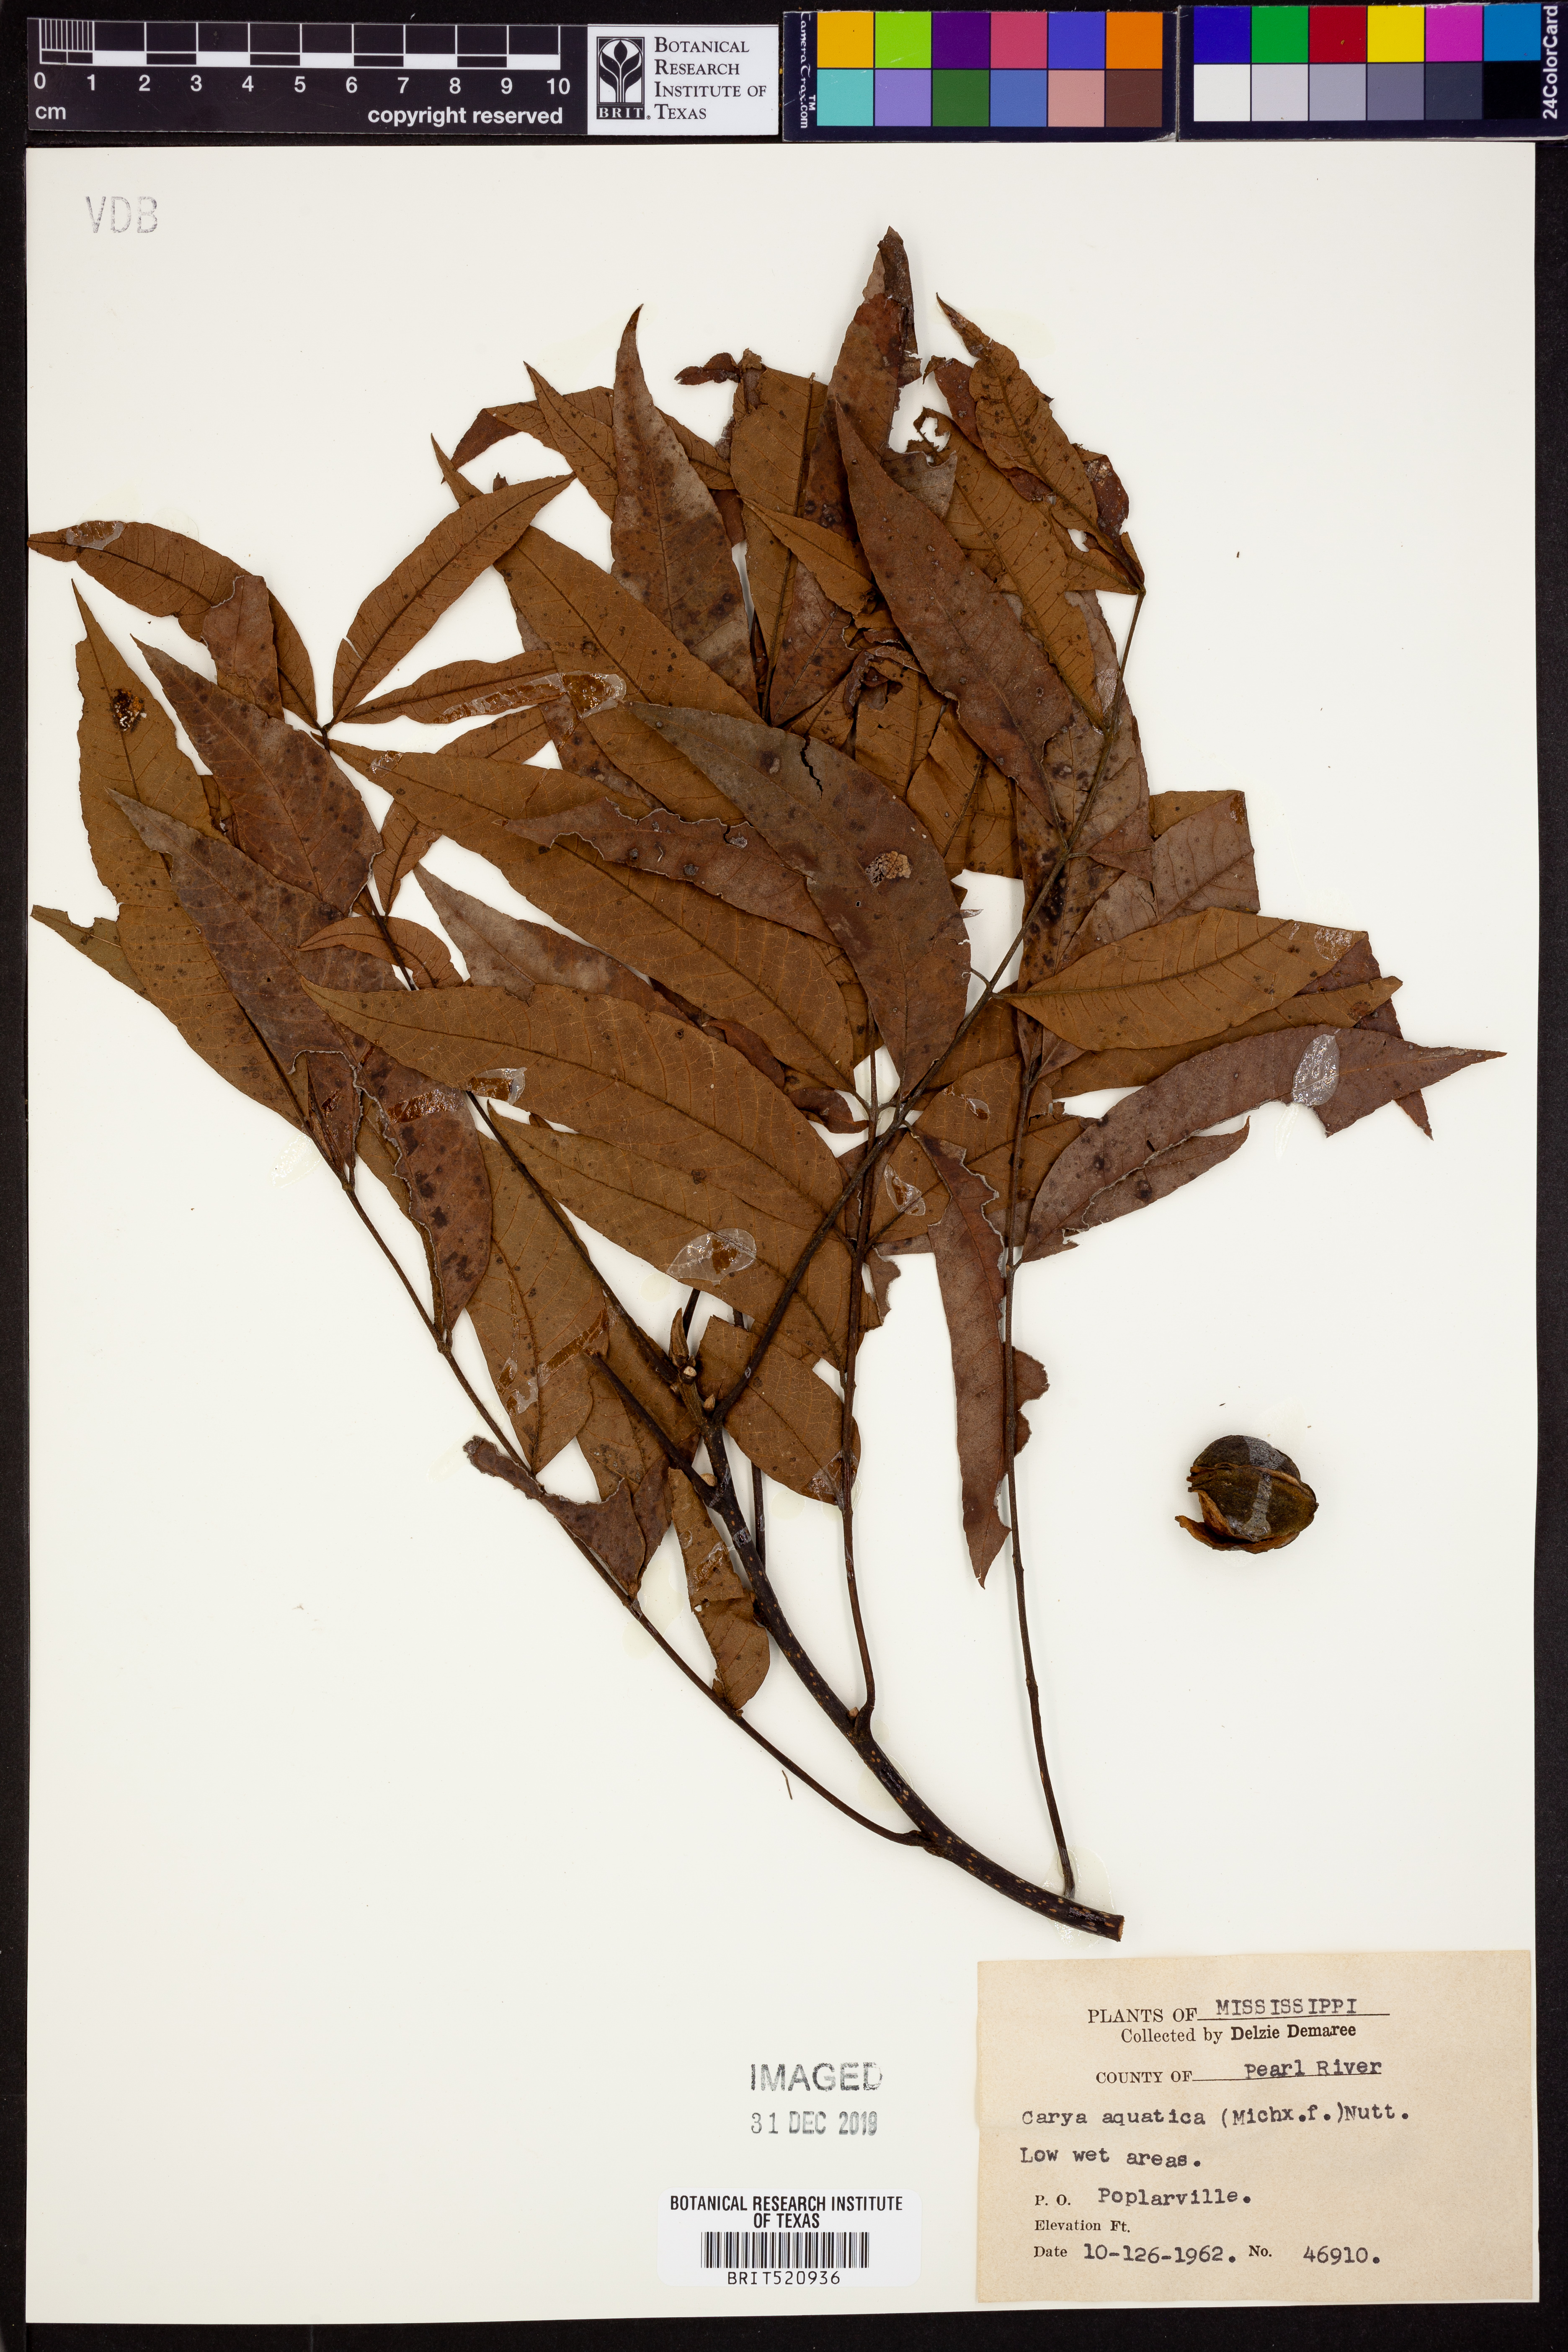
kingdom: Plantae
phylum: Tracheophyta
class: Magnoliopsida
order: Fagales
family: Juglandaceae
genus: Carya
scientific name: Carya aquatica
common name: Water hickory
